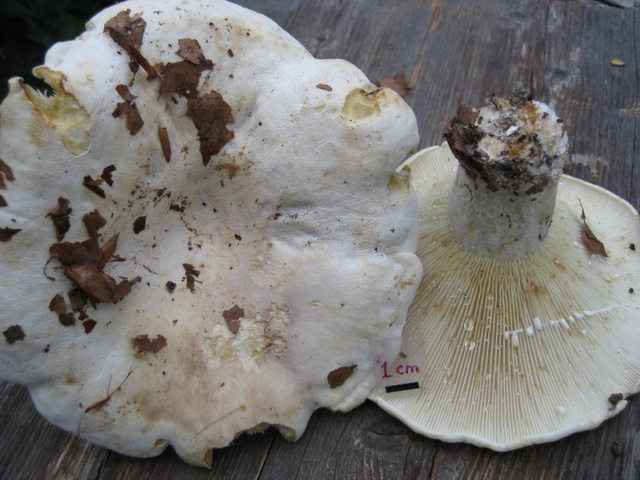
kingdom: Fungi
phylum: Basidiomycota
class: Agaricomycetes
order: Russulales
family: Russulaceae
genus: Lactifluus
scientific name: Lactifluus vellereus
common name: hvidfiltet mælkehat
